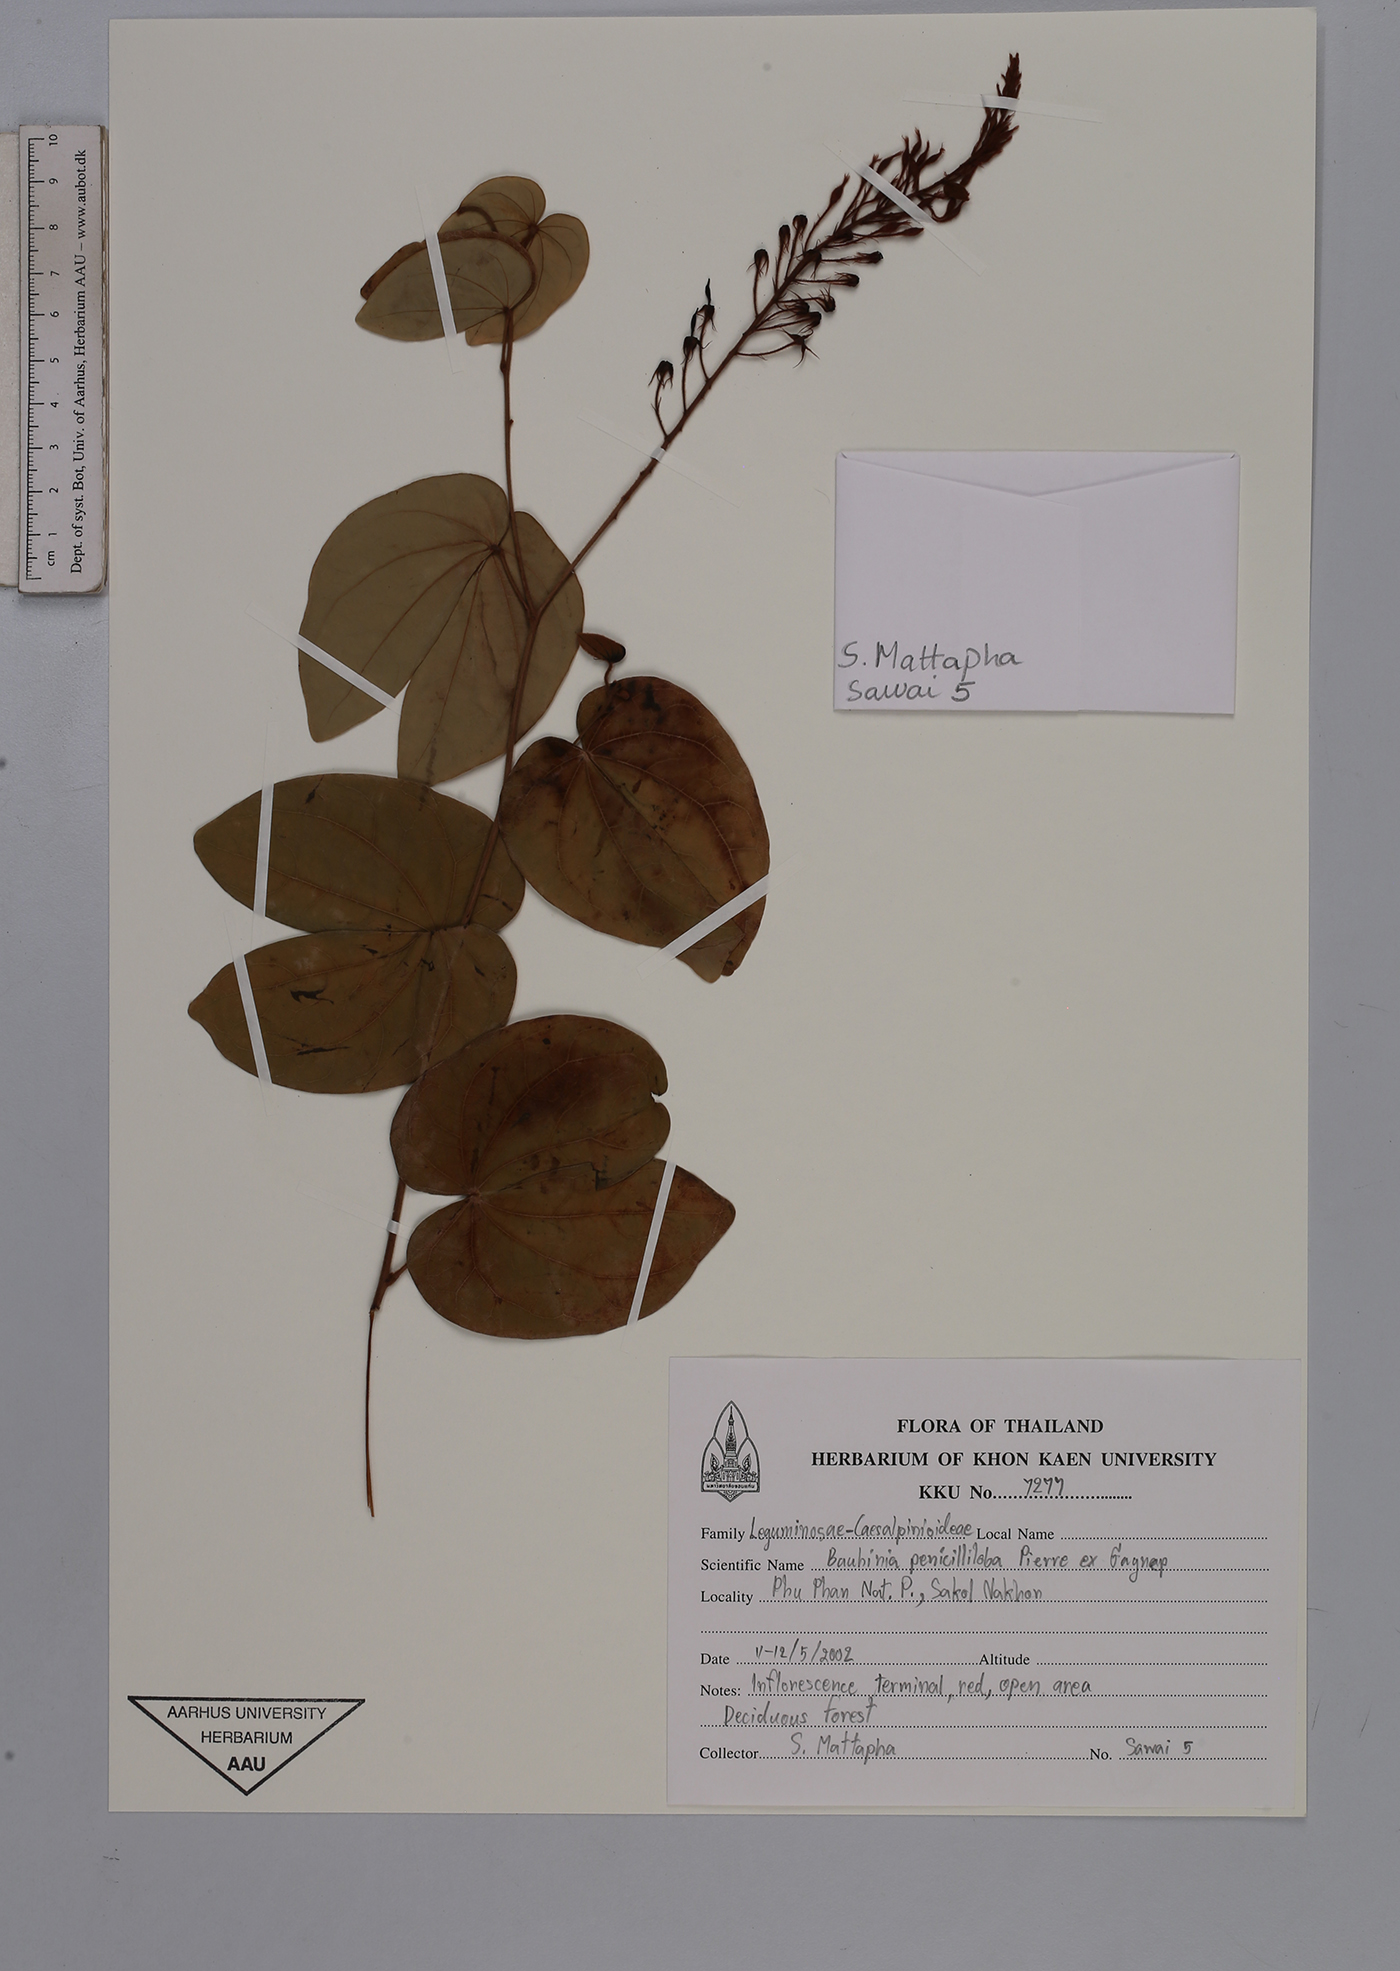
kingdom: Plantae
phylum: Tracheophyta
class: Magnoliopsida
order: Fabales
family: Fabaceae
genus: Phanera
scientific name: Phanera penicilliloba
